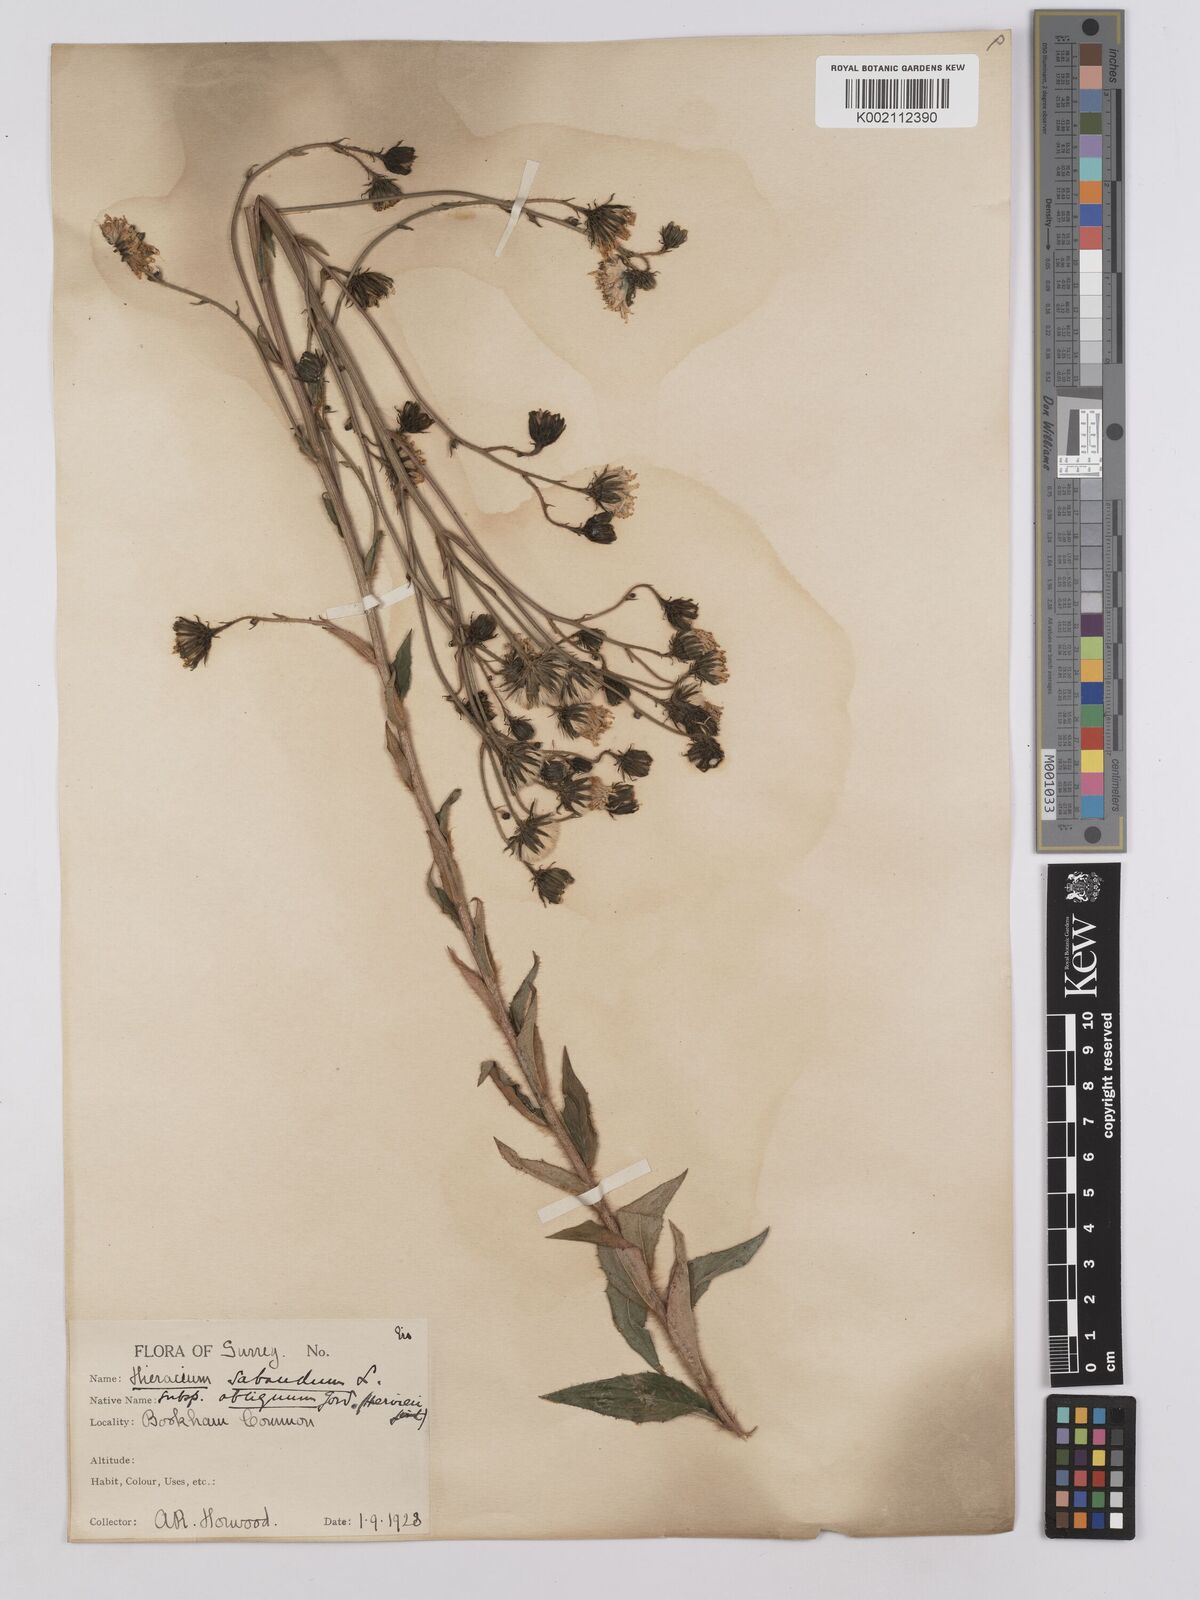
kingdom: Plantae
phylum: Tracheophyta
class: Magnoliopsida
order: Asterales
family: Asteraceae
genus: Hieracium
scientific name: Hieracium sabaudum
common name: New england hawkweed
